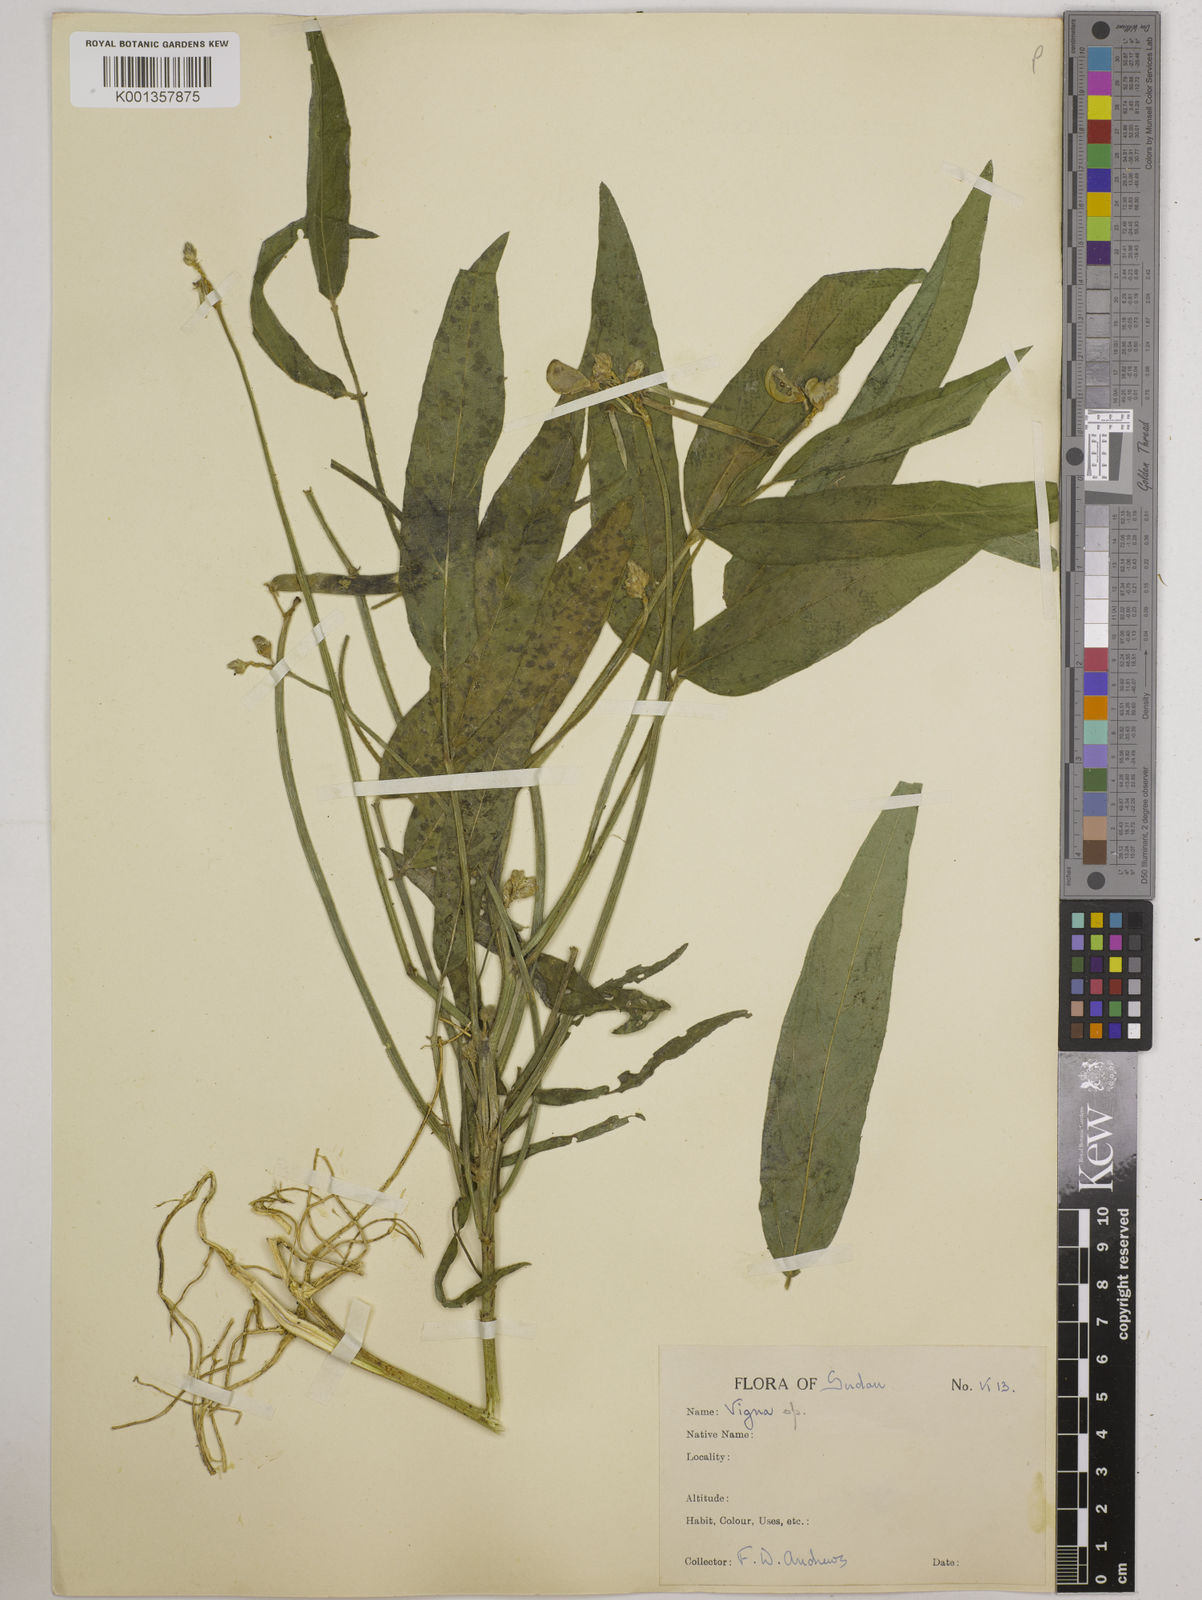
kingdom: Plantae
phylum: Tracheophyta
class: Magnoliopsida
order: Fabales
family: Fabaceae
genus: Vigna
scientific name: Vigna ambacensis
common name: Tsarkiyan zomo
